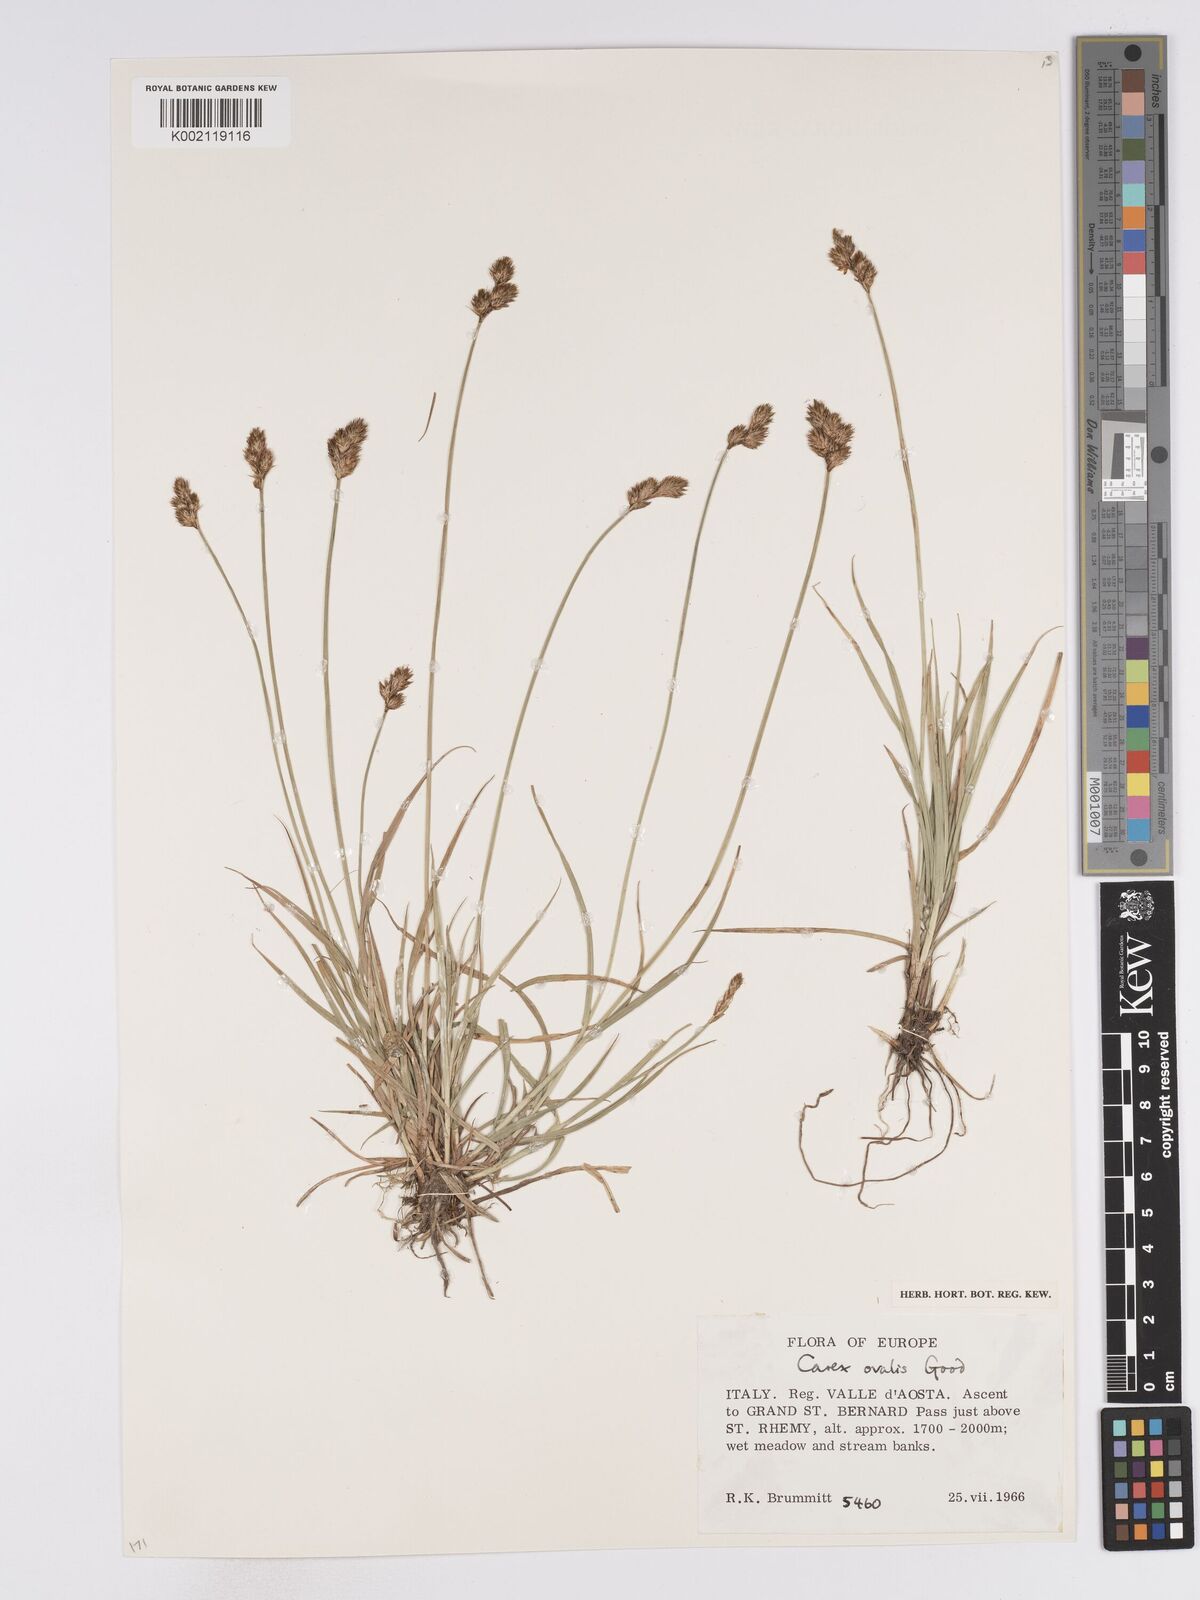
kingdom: Plantae
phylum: Tracheophyta
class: Liliopsida
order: Poales
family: Cyperaceae
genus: Carex
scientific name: Carex leporina
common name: Oval sedge
